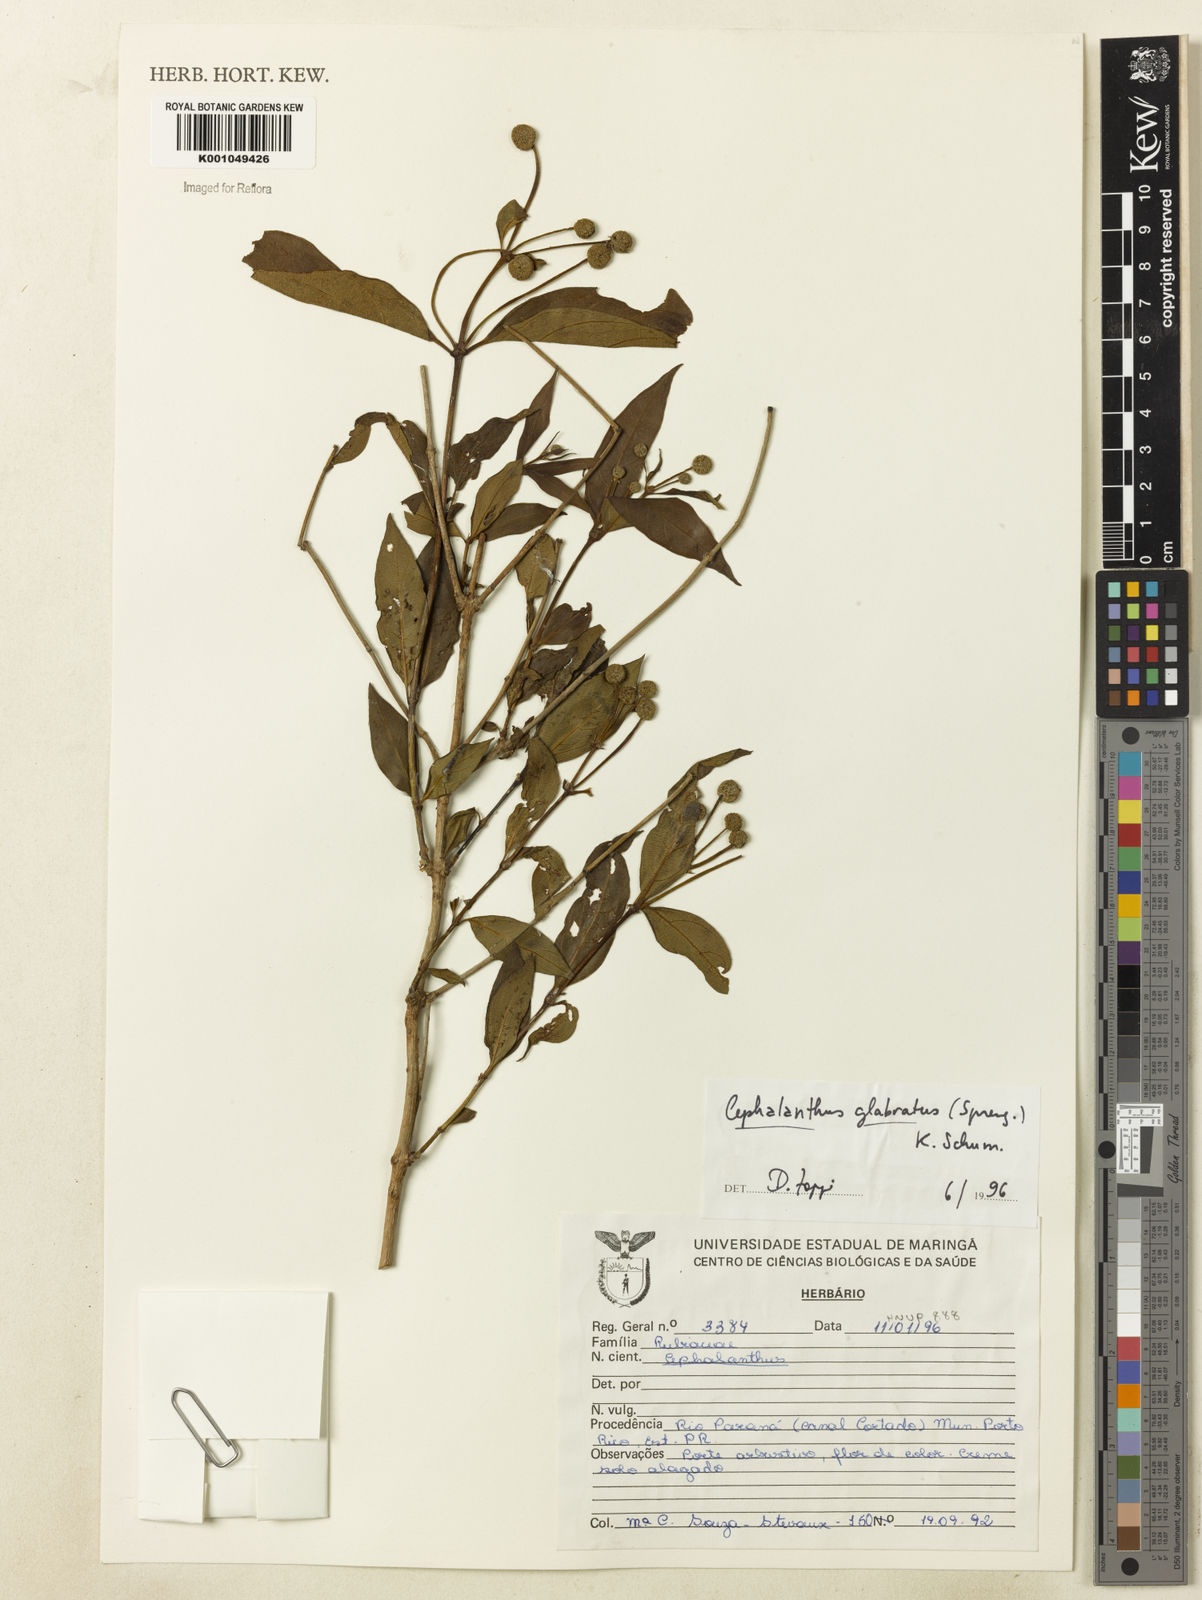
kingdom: Plantae
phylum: Tracheophyta
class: Magnoliopsida
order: Gentianales
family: Rubiaceae
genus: Cephalanthus
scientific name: Cephalanthus glabratus
